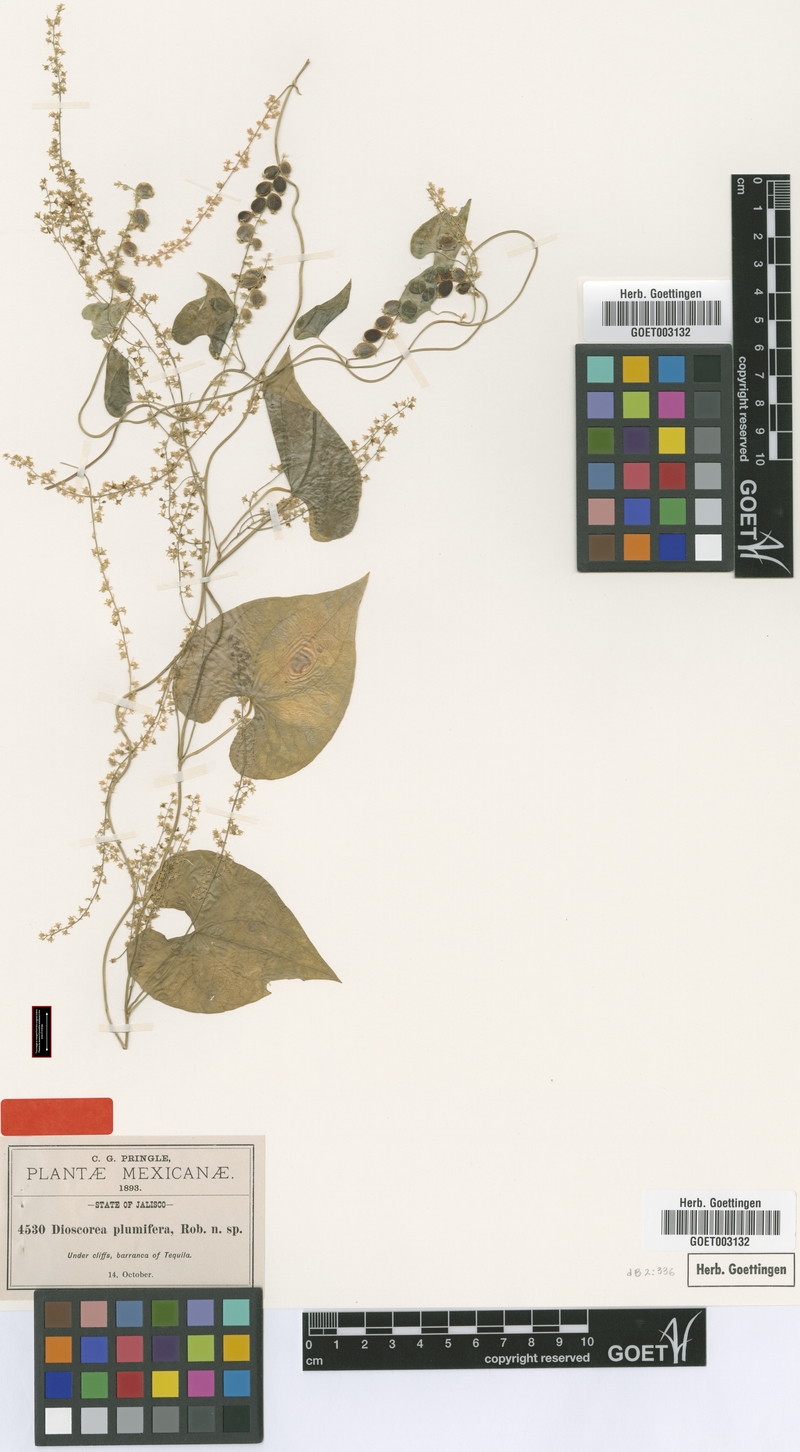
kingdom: Plantae
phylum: Tracheophyta
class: Liliopsida
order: Dioscoreales
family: Dioscoreaceae
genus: Dioscorea
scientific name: Dioscorea plumifera
